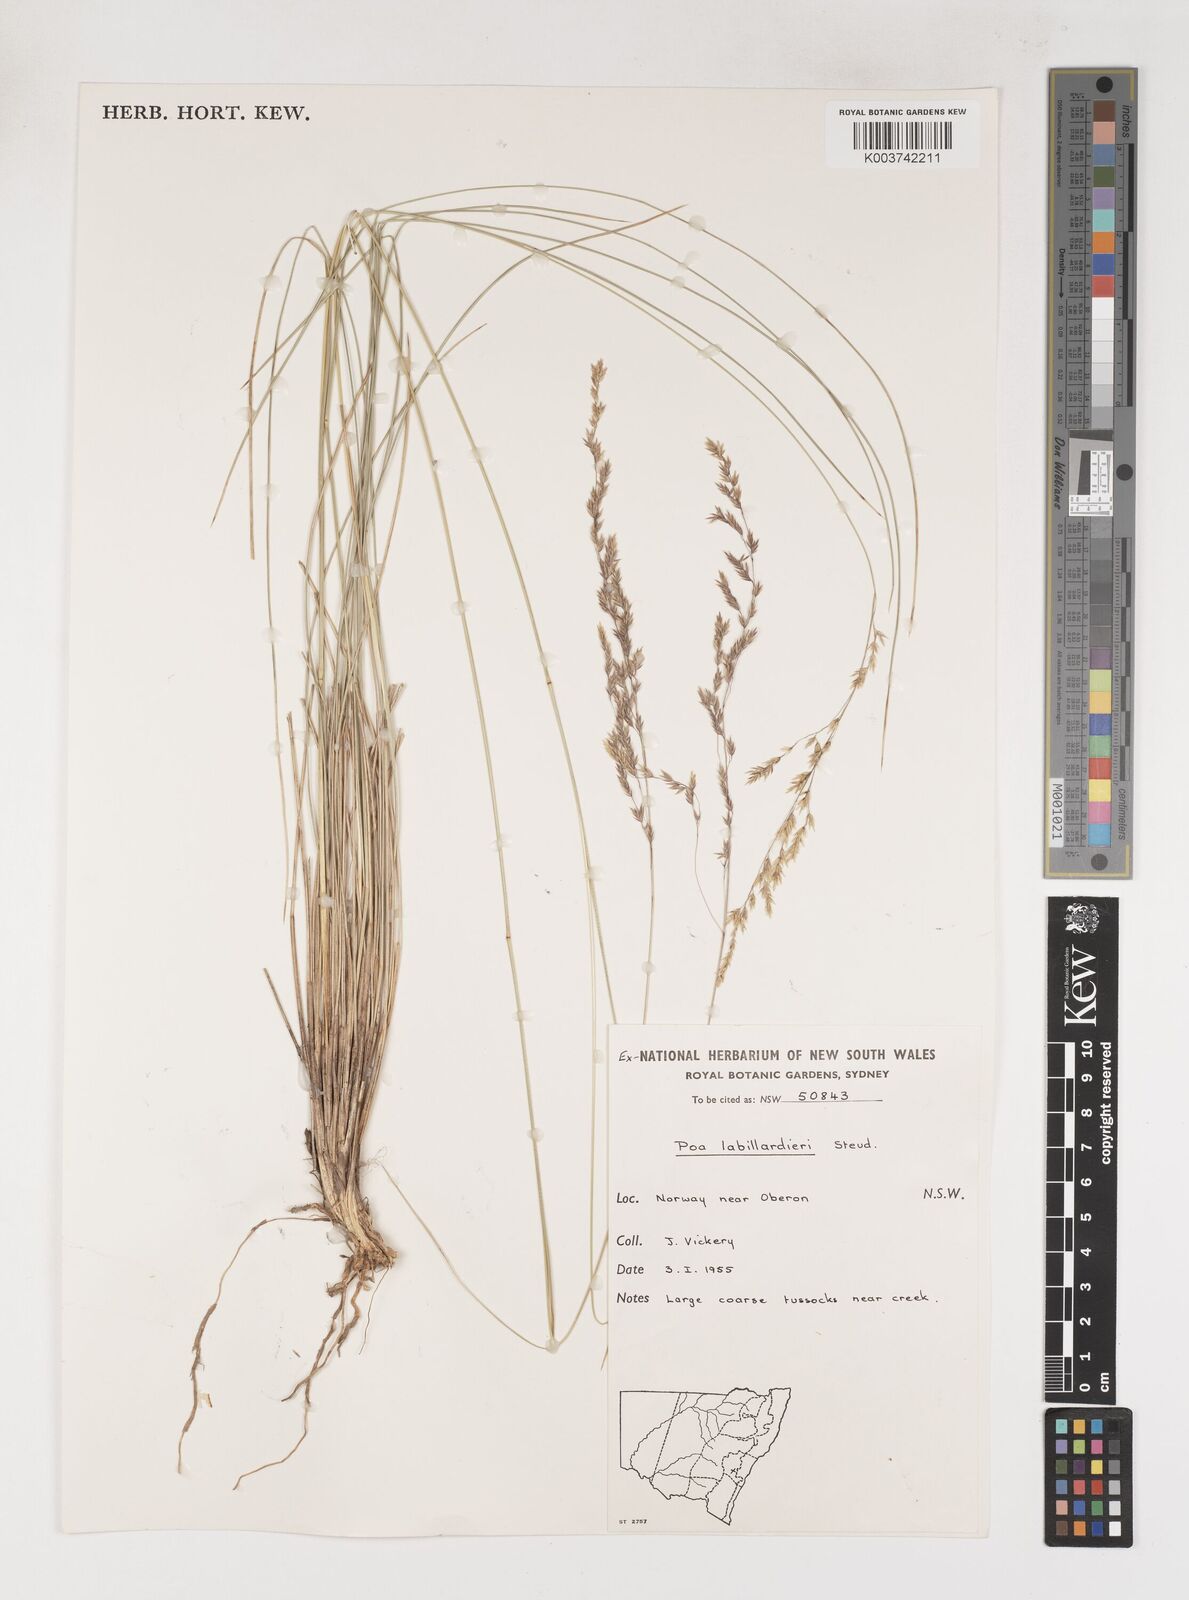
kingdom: Plantae
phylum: Tracheophyta
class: Liliopsida
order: Poales
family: Poaceae
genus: Poa
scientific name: Poa labillardierei
